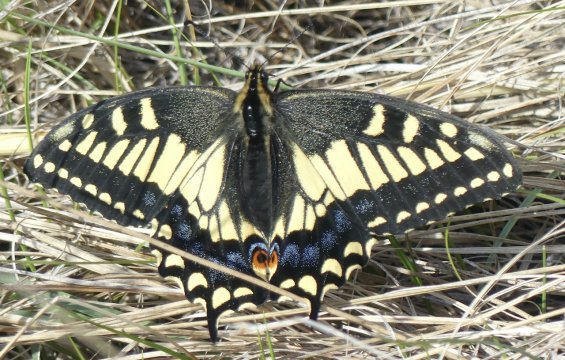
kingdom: Animalia
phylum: Arthropoda
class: Insecta
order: Lepidoptera
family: Papilionidae
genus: Papilio
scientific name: Papilio zelicaon
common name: Anise Swallowtail
